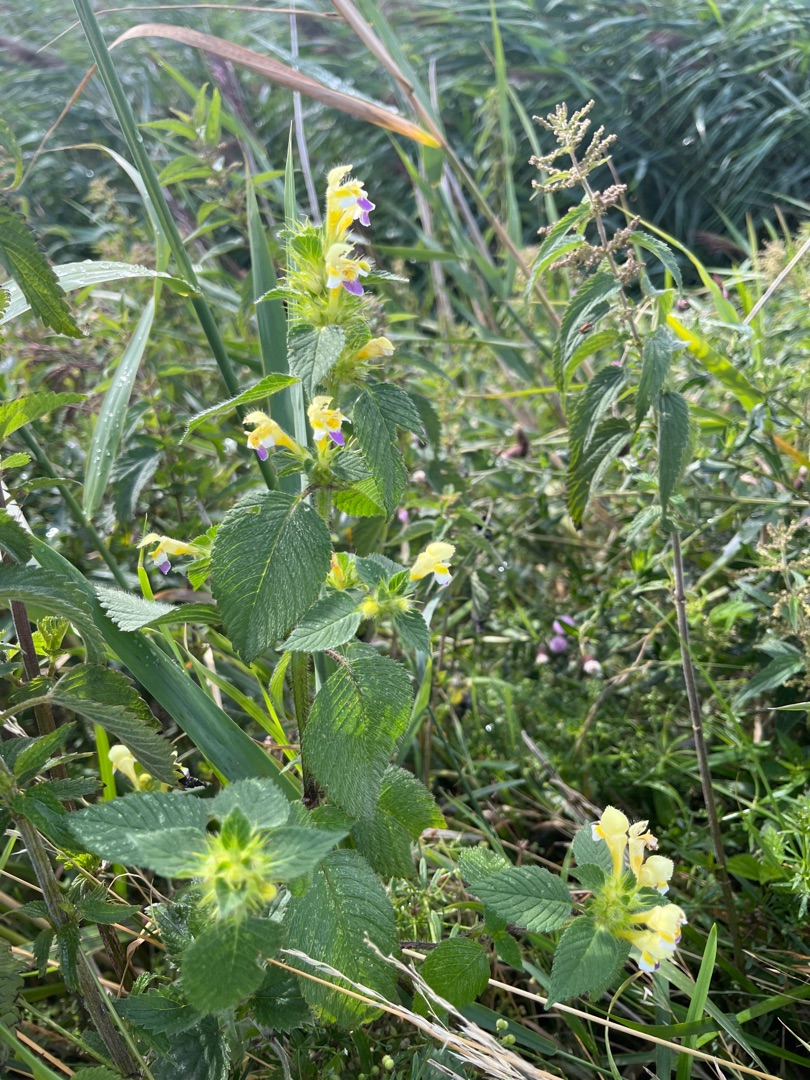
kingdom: Plantae
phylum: Tracheophyta
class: Magnoliopsida
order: Lamiales
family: Lamiaceae
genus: Galeopsis
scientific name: Galeopsis speciosa
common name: Hamp-hanekro
